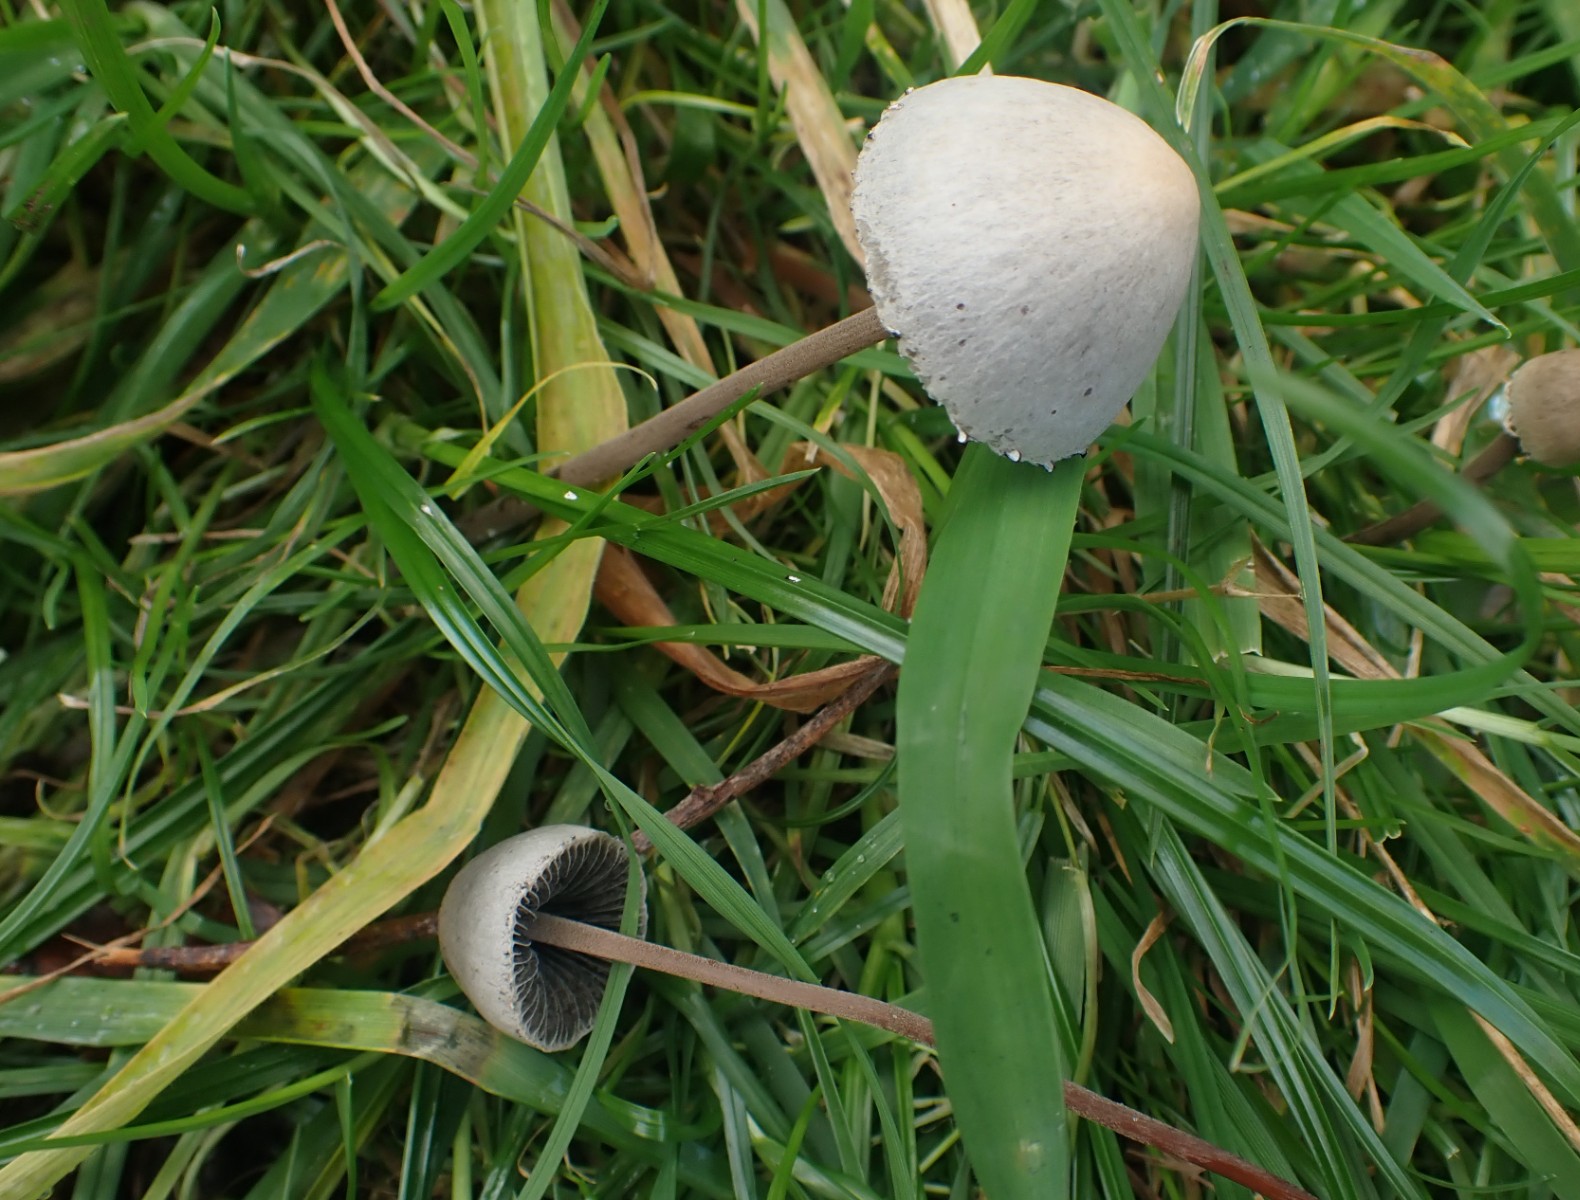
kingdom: Fungi
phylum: Basidiomycota
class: Agaricomycetes
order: Agaricales
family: Bolbitiaceae
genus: Panaeolus
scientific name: Panaeolus papilionaceus
